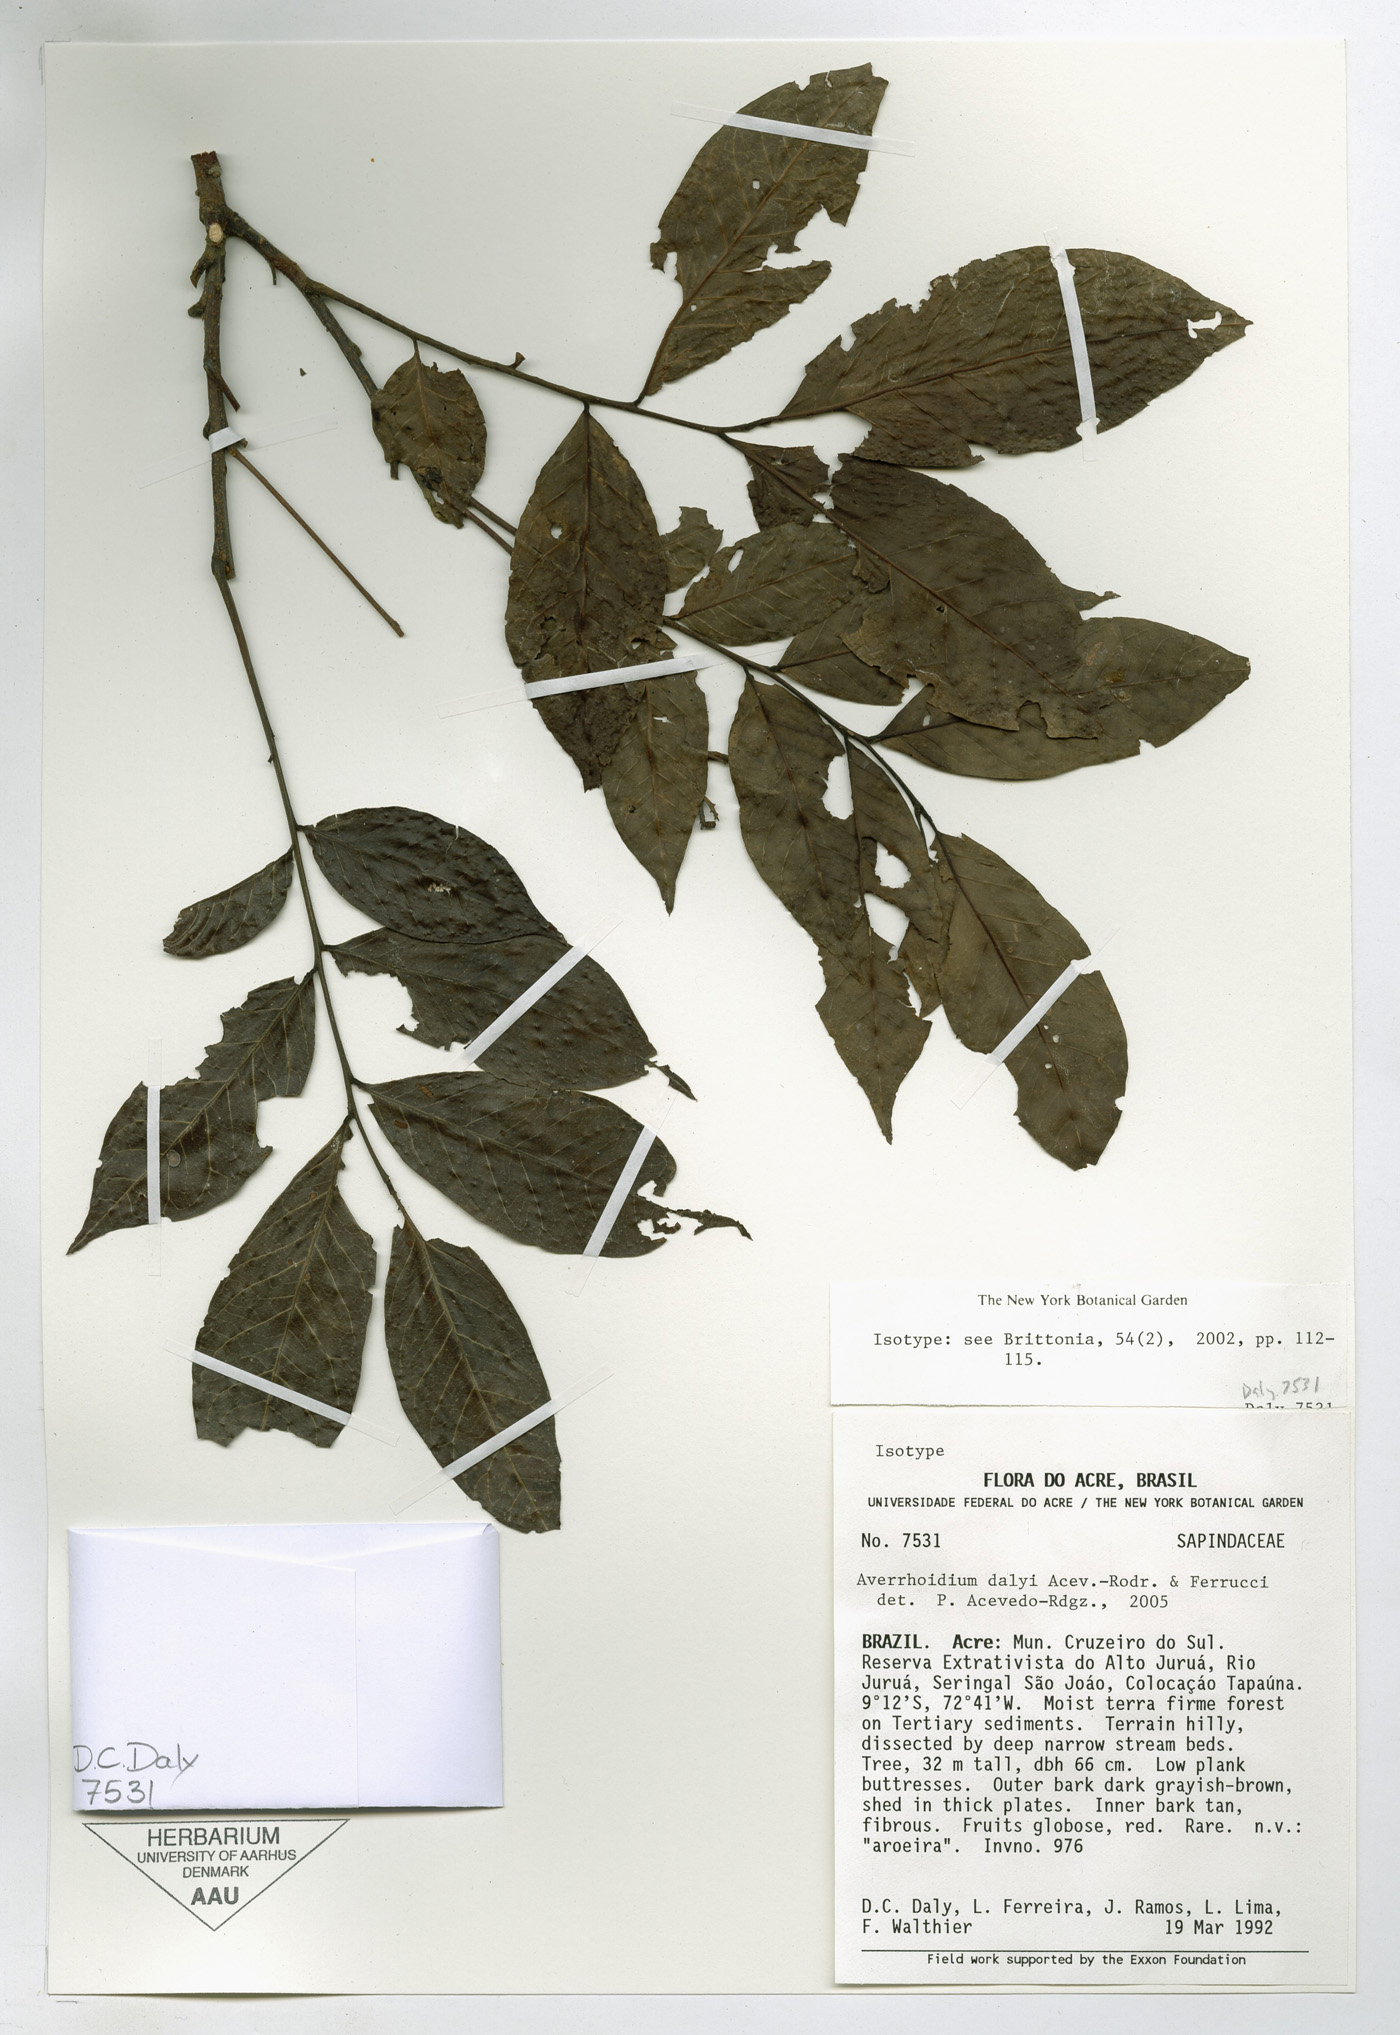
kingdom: Plantae
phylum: Tracheophyta
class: Magnoliopsida
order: Sapindales
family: Sapindaceae
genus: Averrhoidium
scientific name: Averrhoidium dalyi
